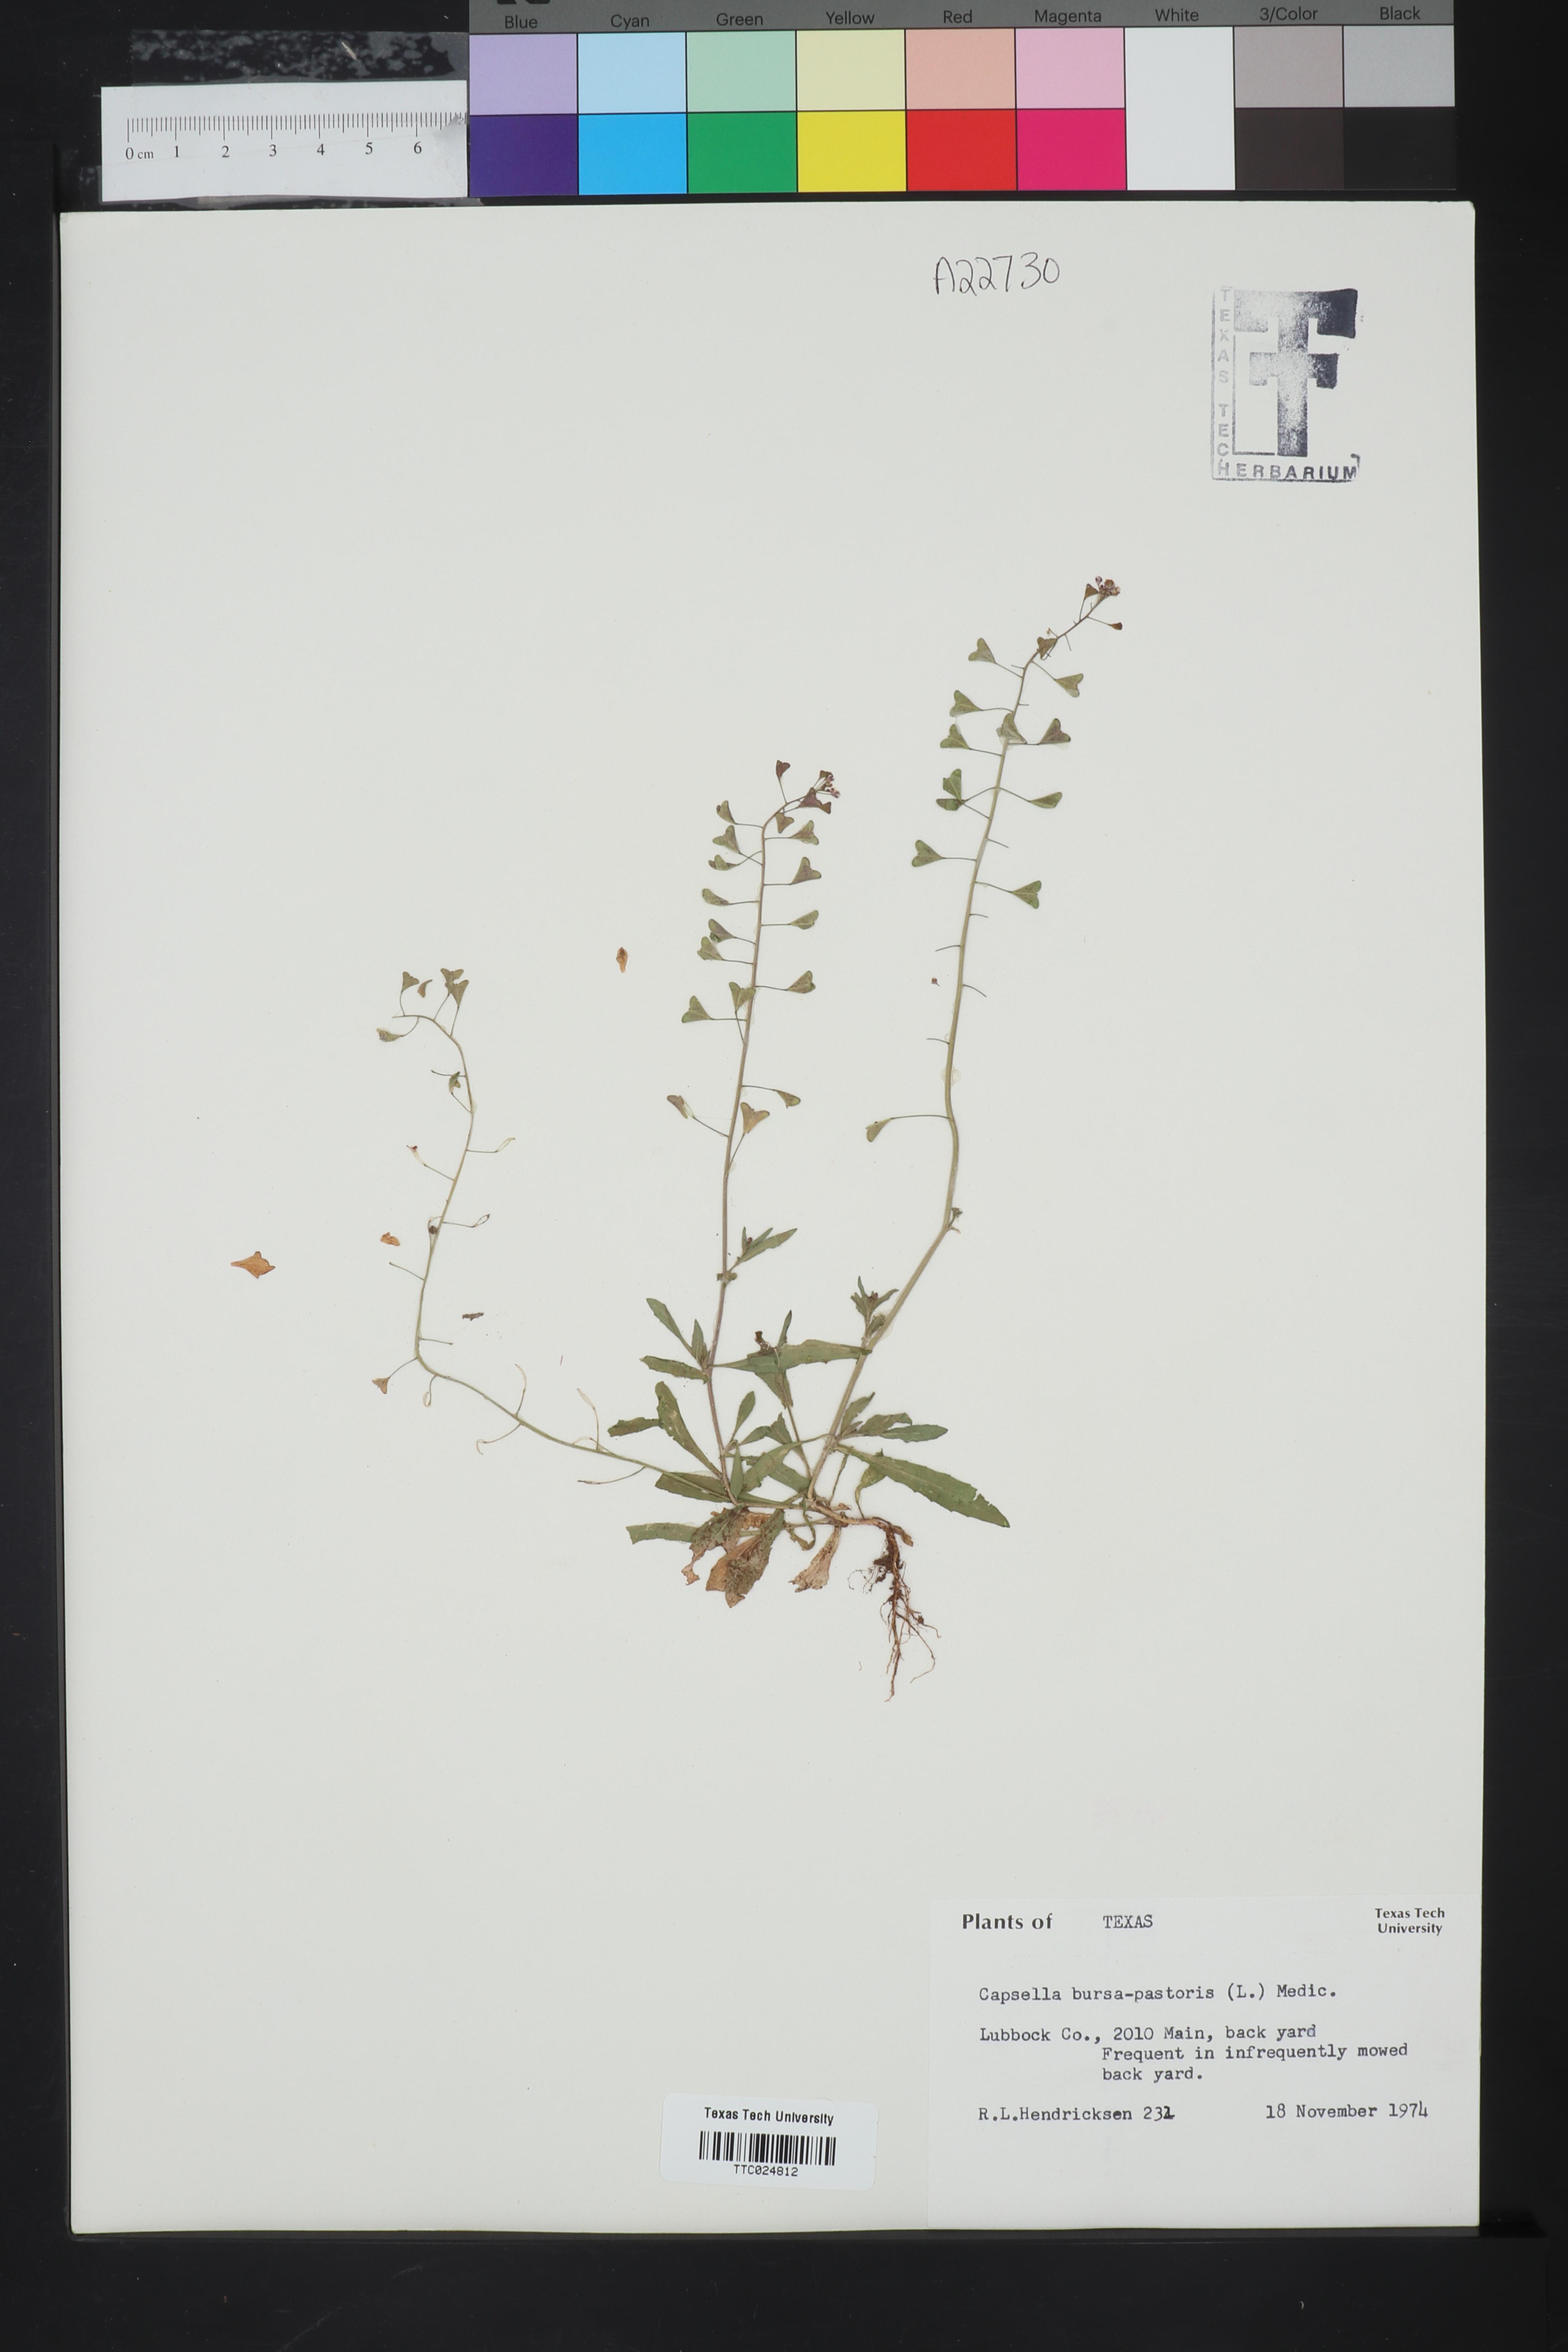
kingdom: Plantae
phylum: Tracheophyta
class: Magnoliopsida
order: Brassicales
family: Brassicaceae
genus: Capsella
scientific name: Capsella bursa-pastoris
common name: Shepherd's purse
